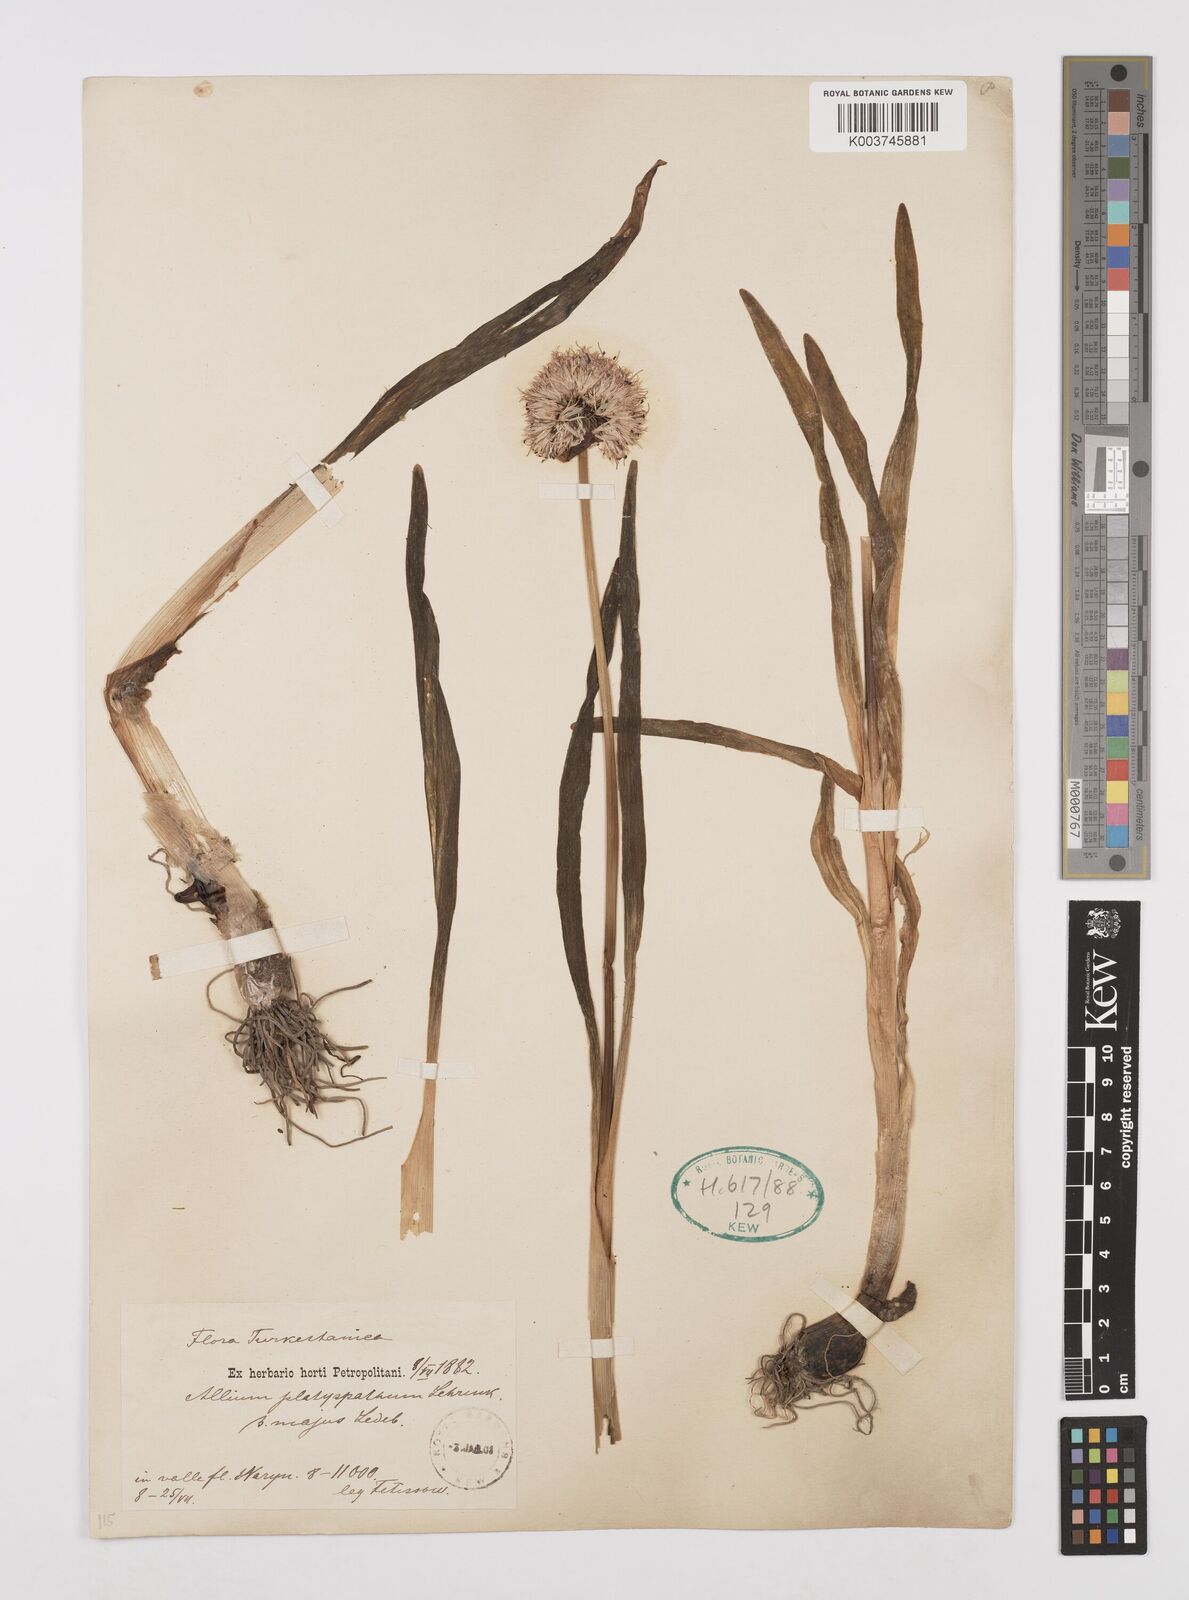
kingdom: Plantae
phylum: Tracheophyta
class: Liliopsida
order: Asparagales
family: Amaryllidaceae
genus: Allium
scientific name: Allium platyspathum
